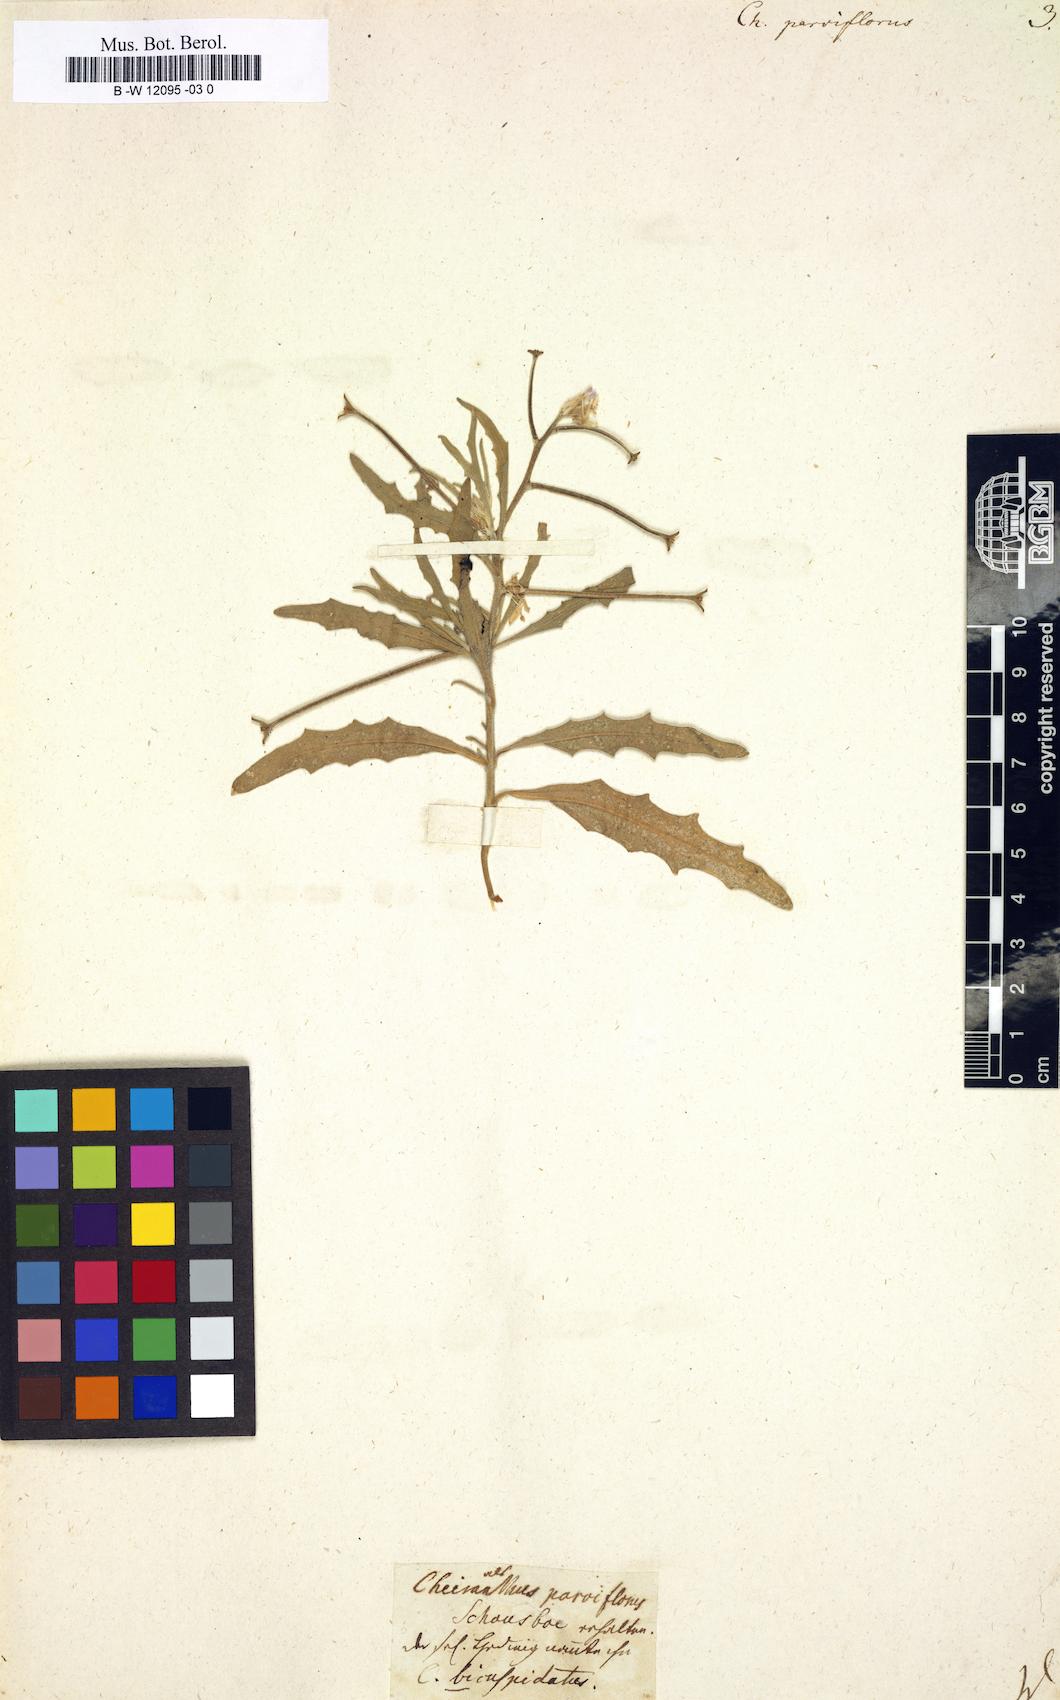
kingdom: Plantae
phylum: Tracheophyta
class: Magnoliopsida
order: Brassicales
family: Brassicaceae
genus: Matthiola
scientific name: Matthiola
